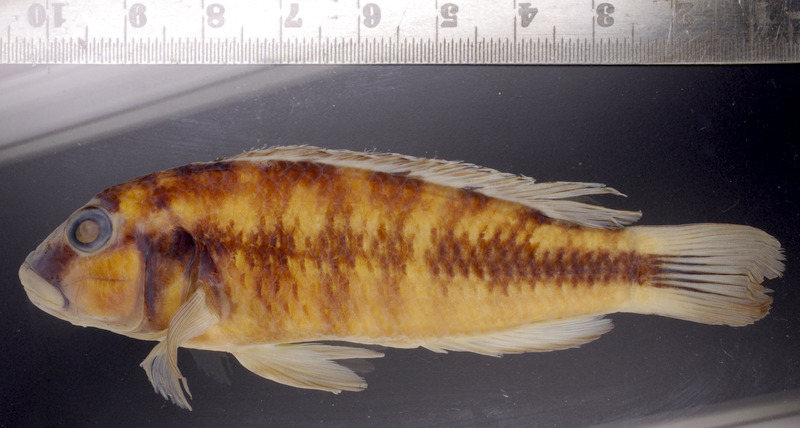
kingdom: Animalia
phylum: Chordata
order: Perciformes
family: Cichlidae
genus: Orthochromis
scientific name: Orthochromis
